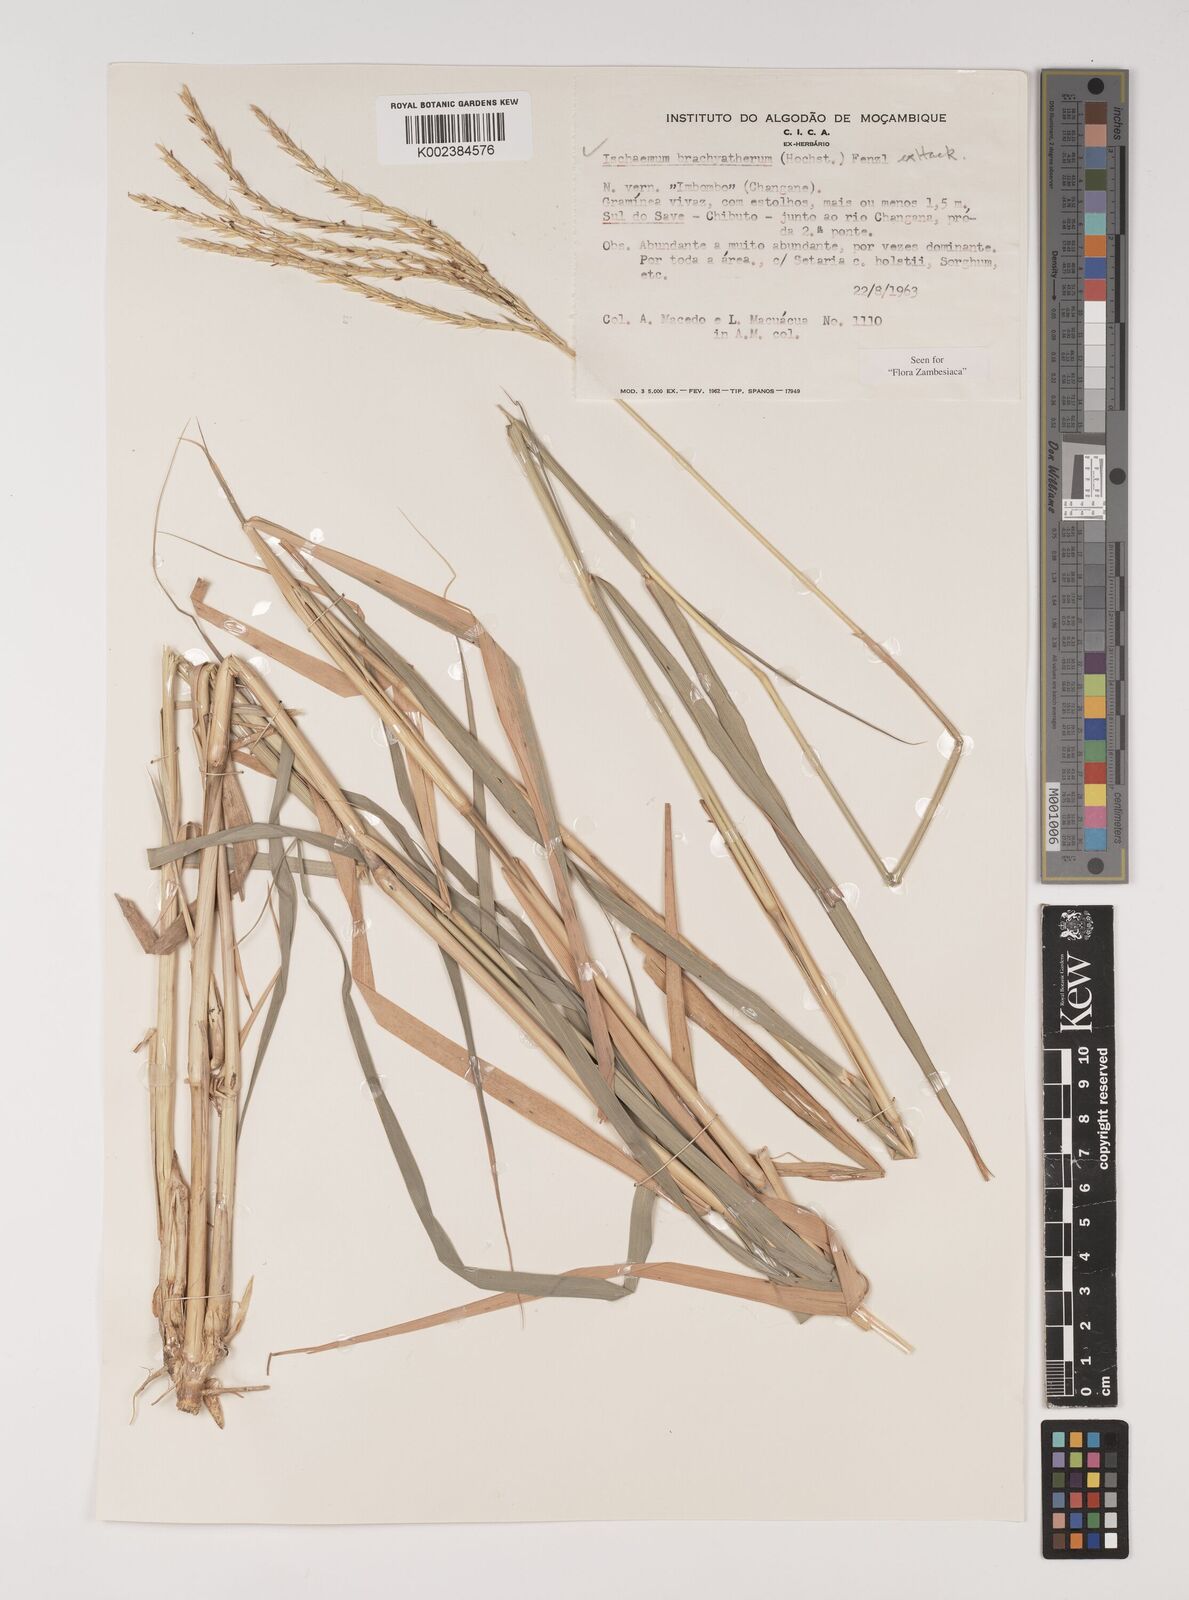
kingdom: Plantae
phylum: Tracheophyta
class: Liliopsida
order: Poales
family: Poaceae
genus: Ischaemum
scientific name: Ischaemum afrum
